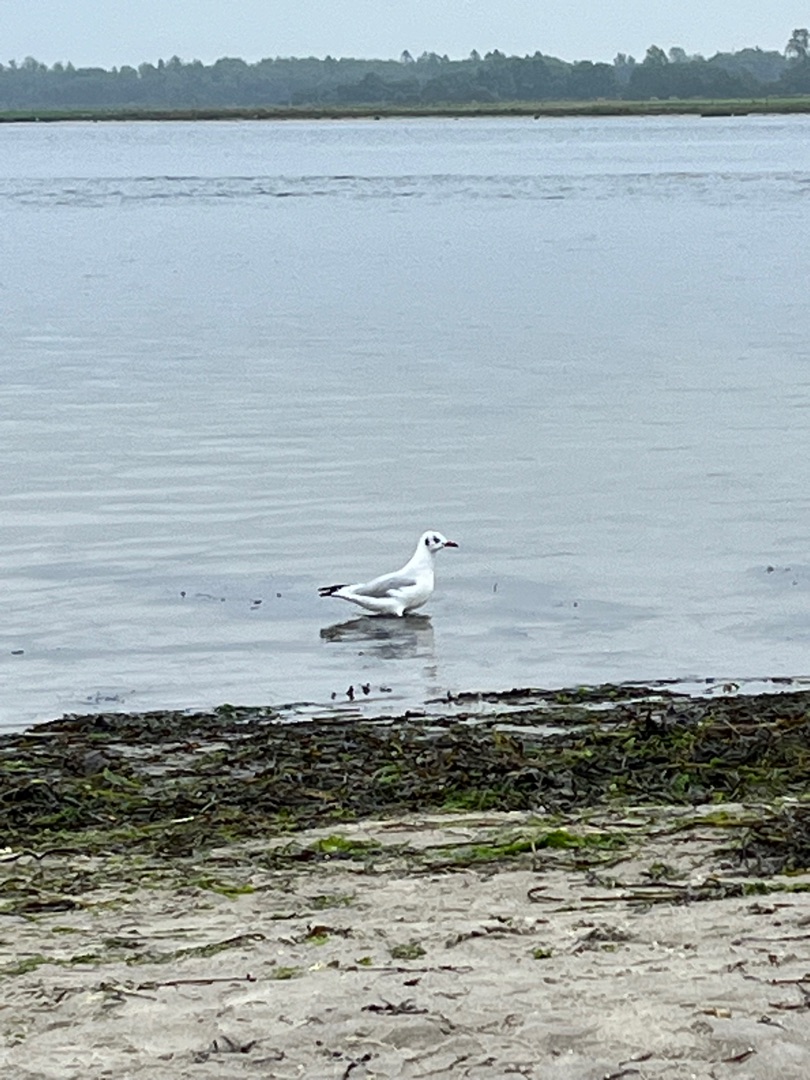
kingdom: Animalia
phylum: Chordata
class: Aves
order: Charadriiformes
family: Laridae
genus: Chroicocephalus
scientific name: Chroicocephalus ridibundus
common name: Hættemåge
